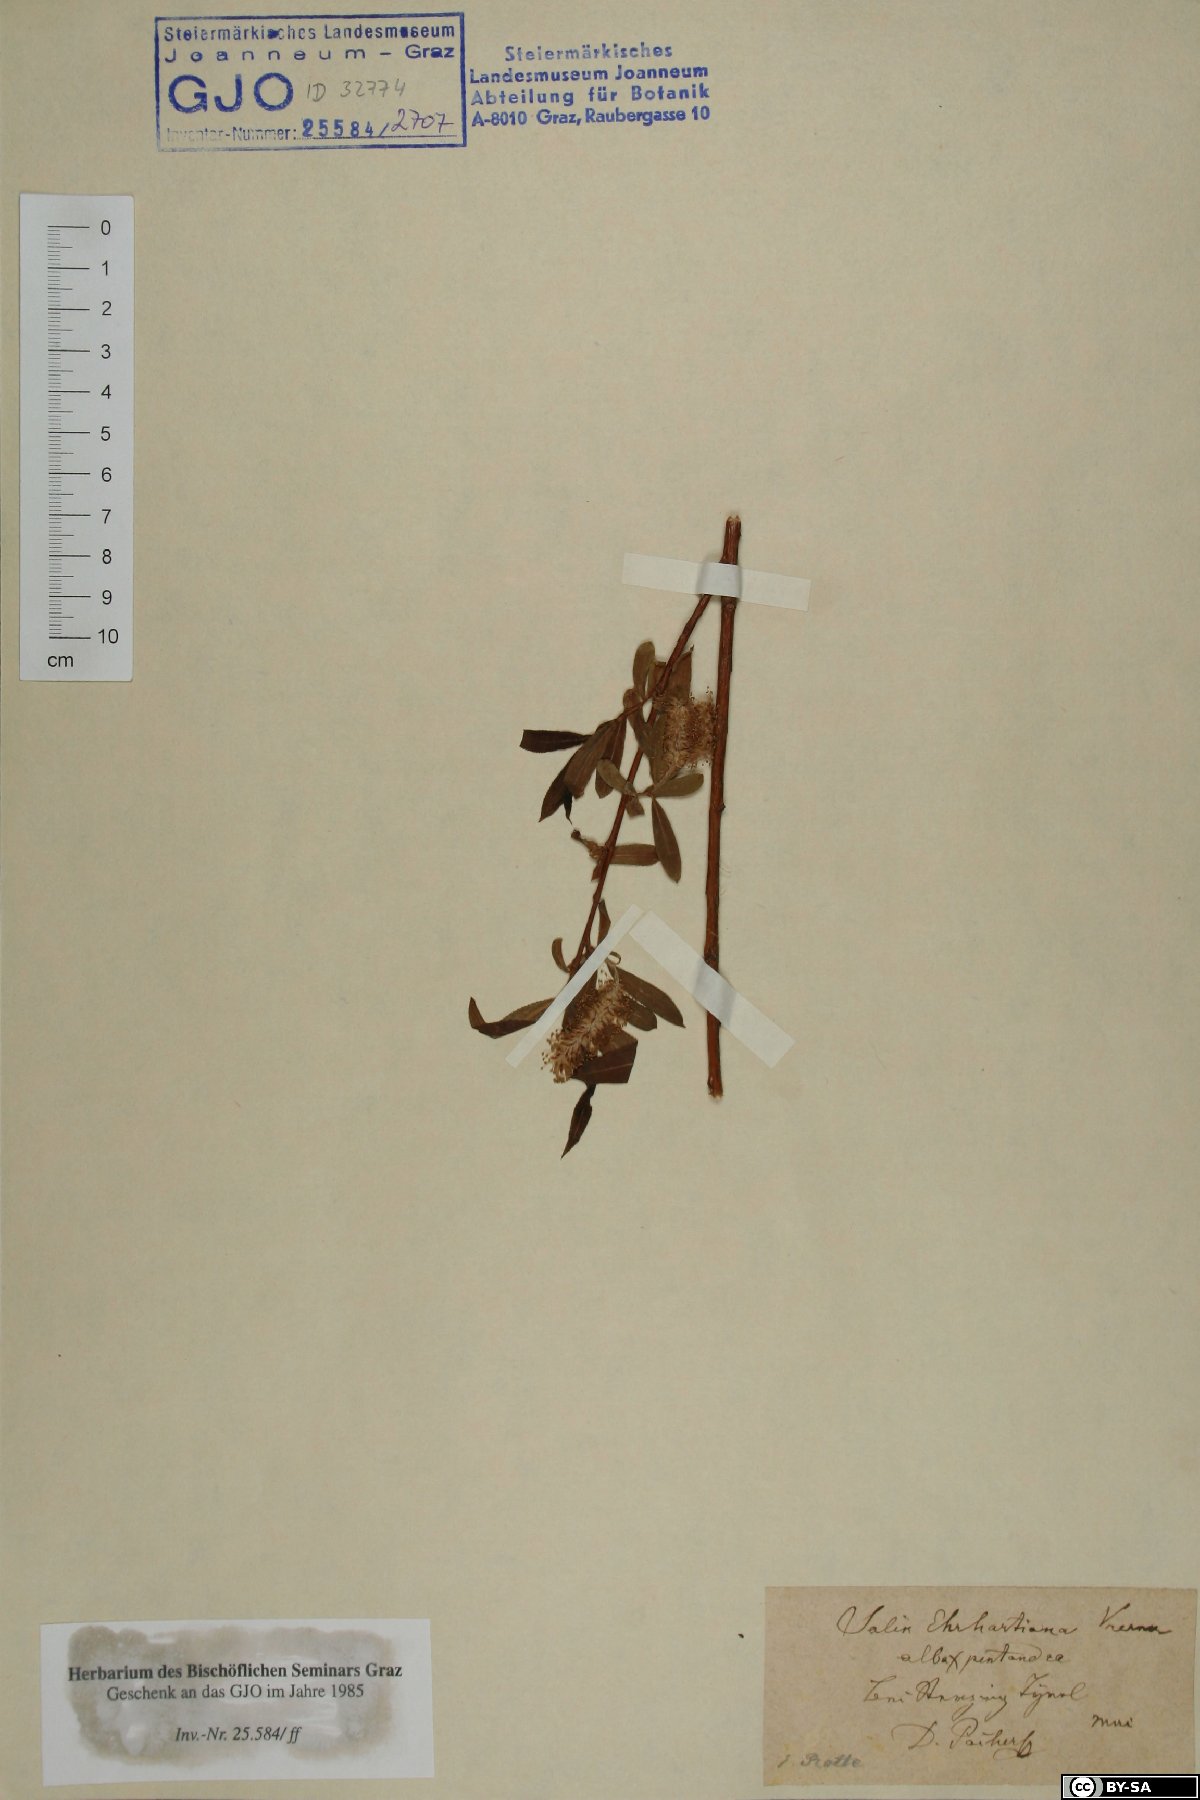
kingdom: Plantae
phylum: Tracheophyta
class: Magnoliopsida
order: Malpighiales
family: Salicaceae
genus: Salix
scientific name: Salix hexandra
